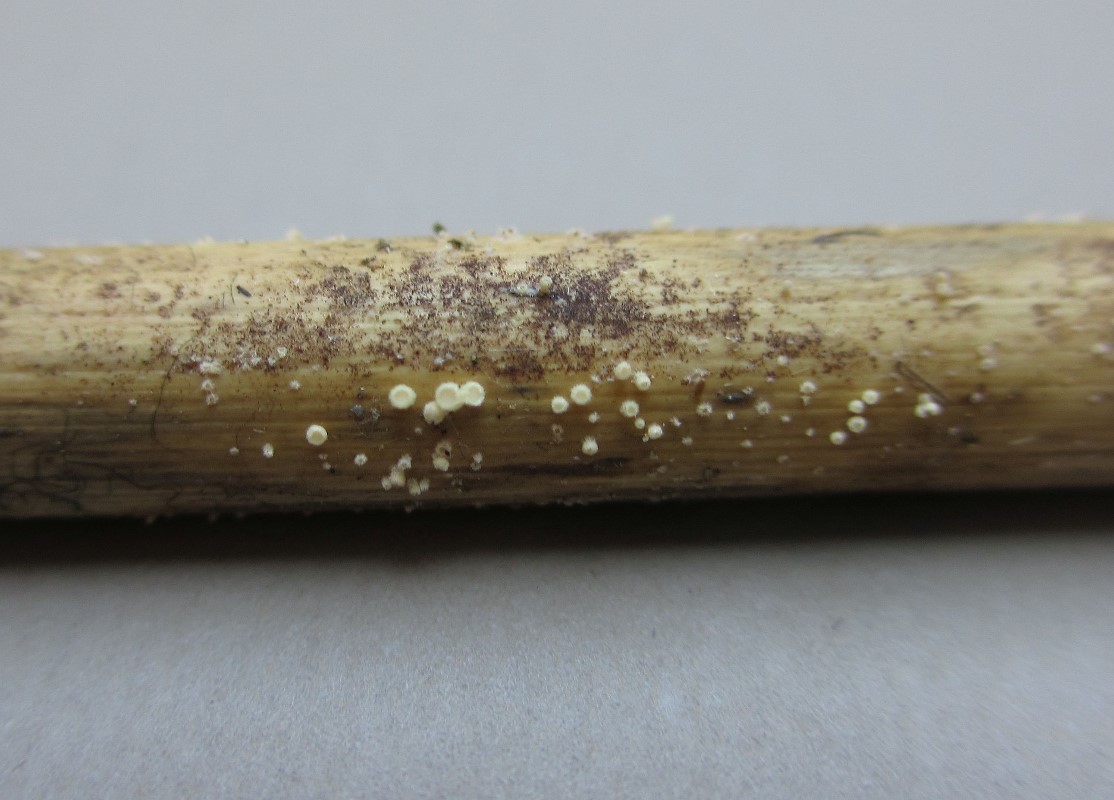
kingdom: Fungi
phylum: Ascomycota
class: Leotiomycetes
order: Helotiales
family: Lachnaceae
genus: Lachnum
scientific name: Lachnum
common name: frynseskive
